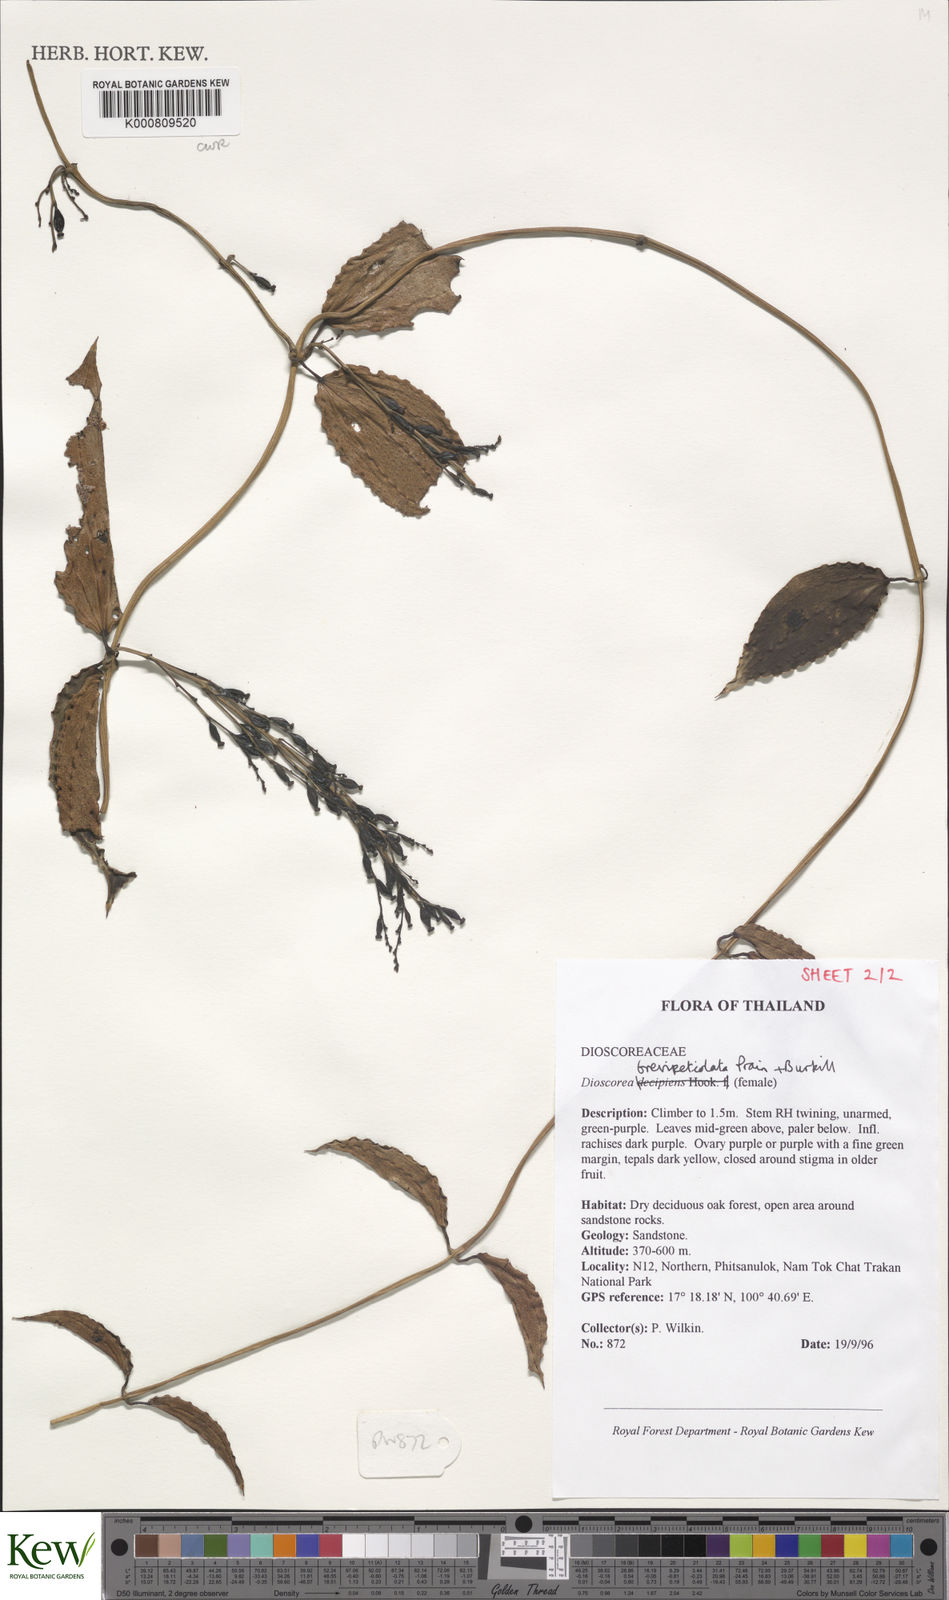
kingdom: Plantae
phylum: Tracheophyta
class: Liliopsida
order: Dioscoreales
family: Dioscoreaceae
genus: Dioscorea
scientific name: Dioscorea brevipetiolata
